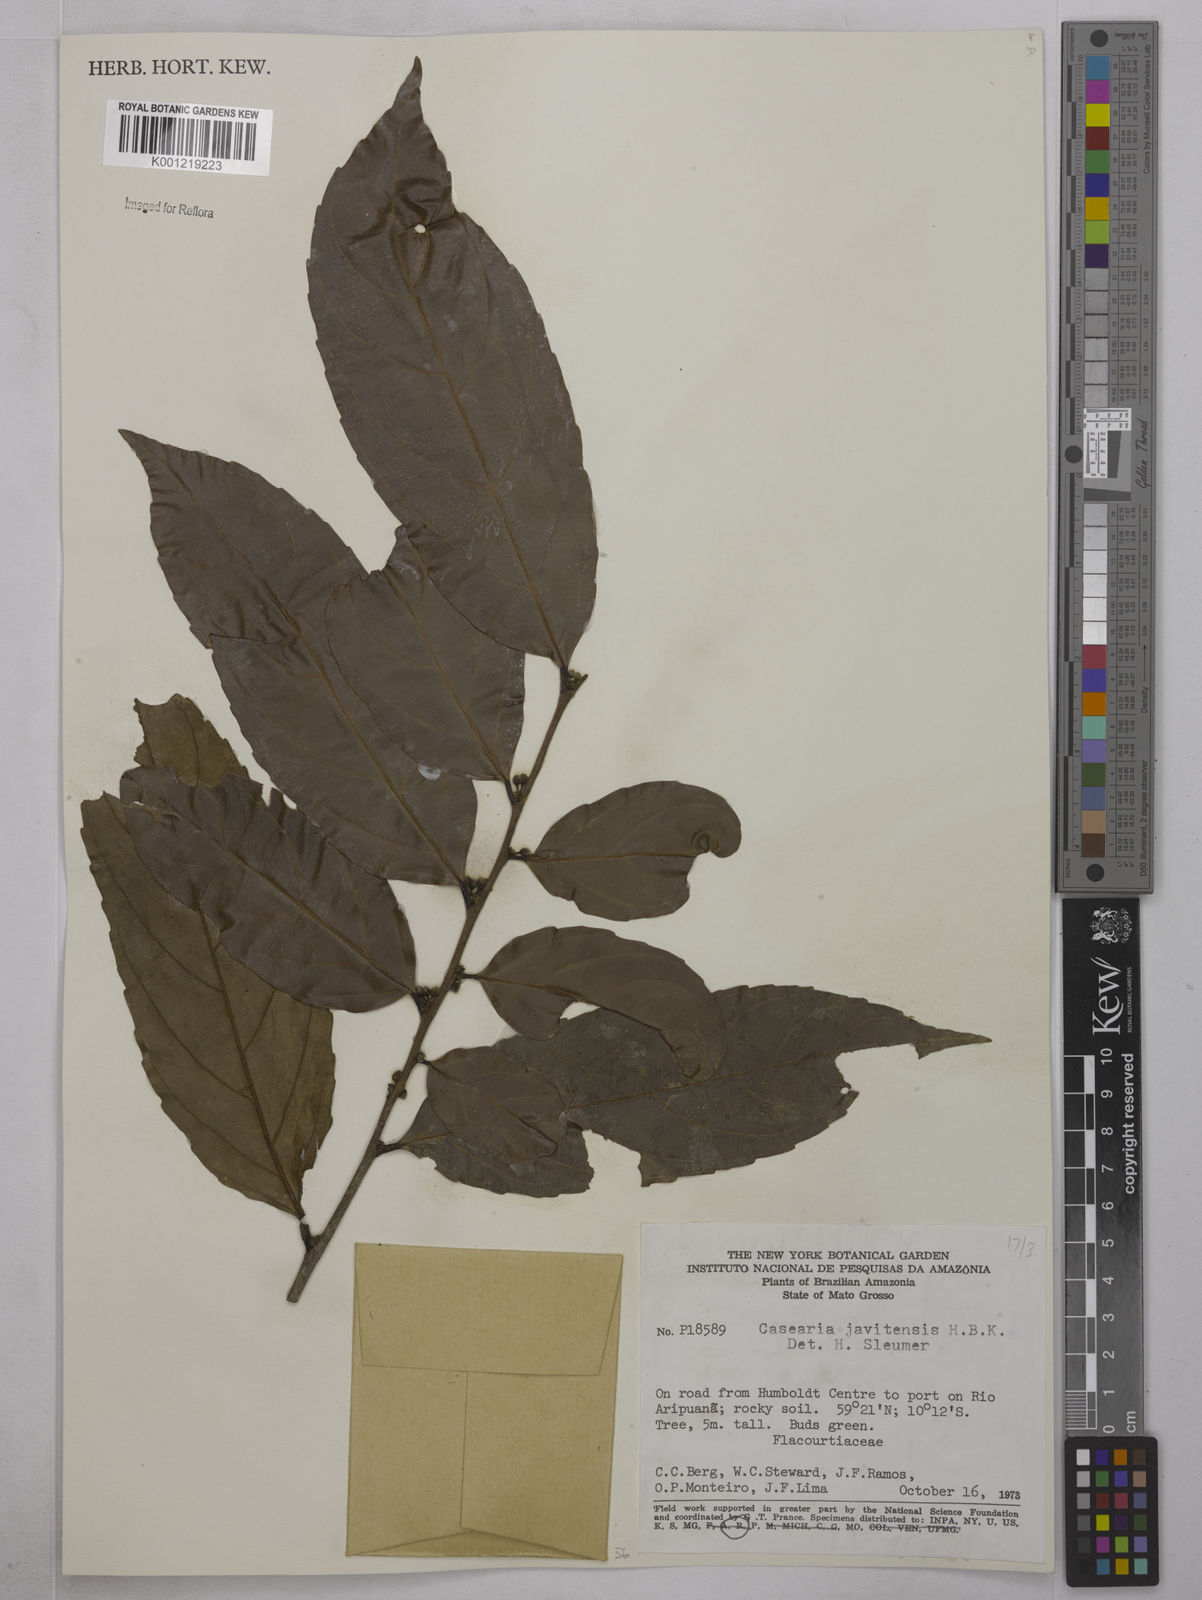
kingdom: Plantae
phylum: Tracheophyta
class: Magnoliopsida
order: Malpighiales
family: Salicaceae
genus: Piparea
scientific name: Piparea multiflora
